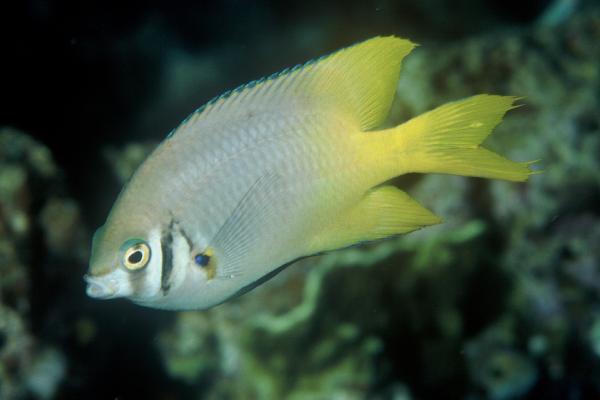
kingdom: Animalia
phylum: Chordata
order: Perciformes
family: Pomacentridae
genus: Neoglyphidodon
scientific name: Neoglyphidodon nigroris
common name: Behn's damsel
